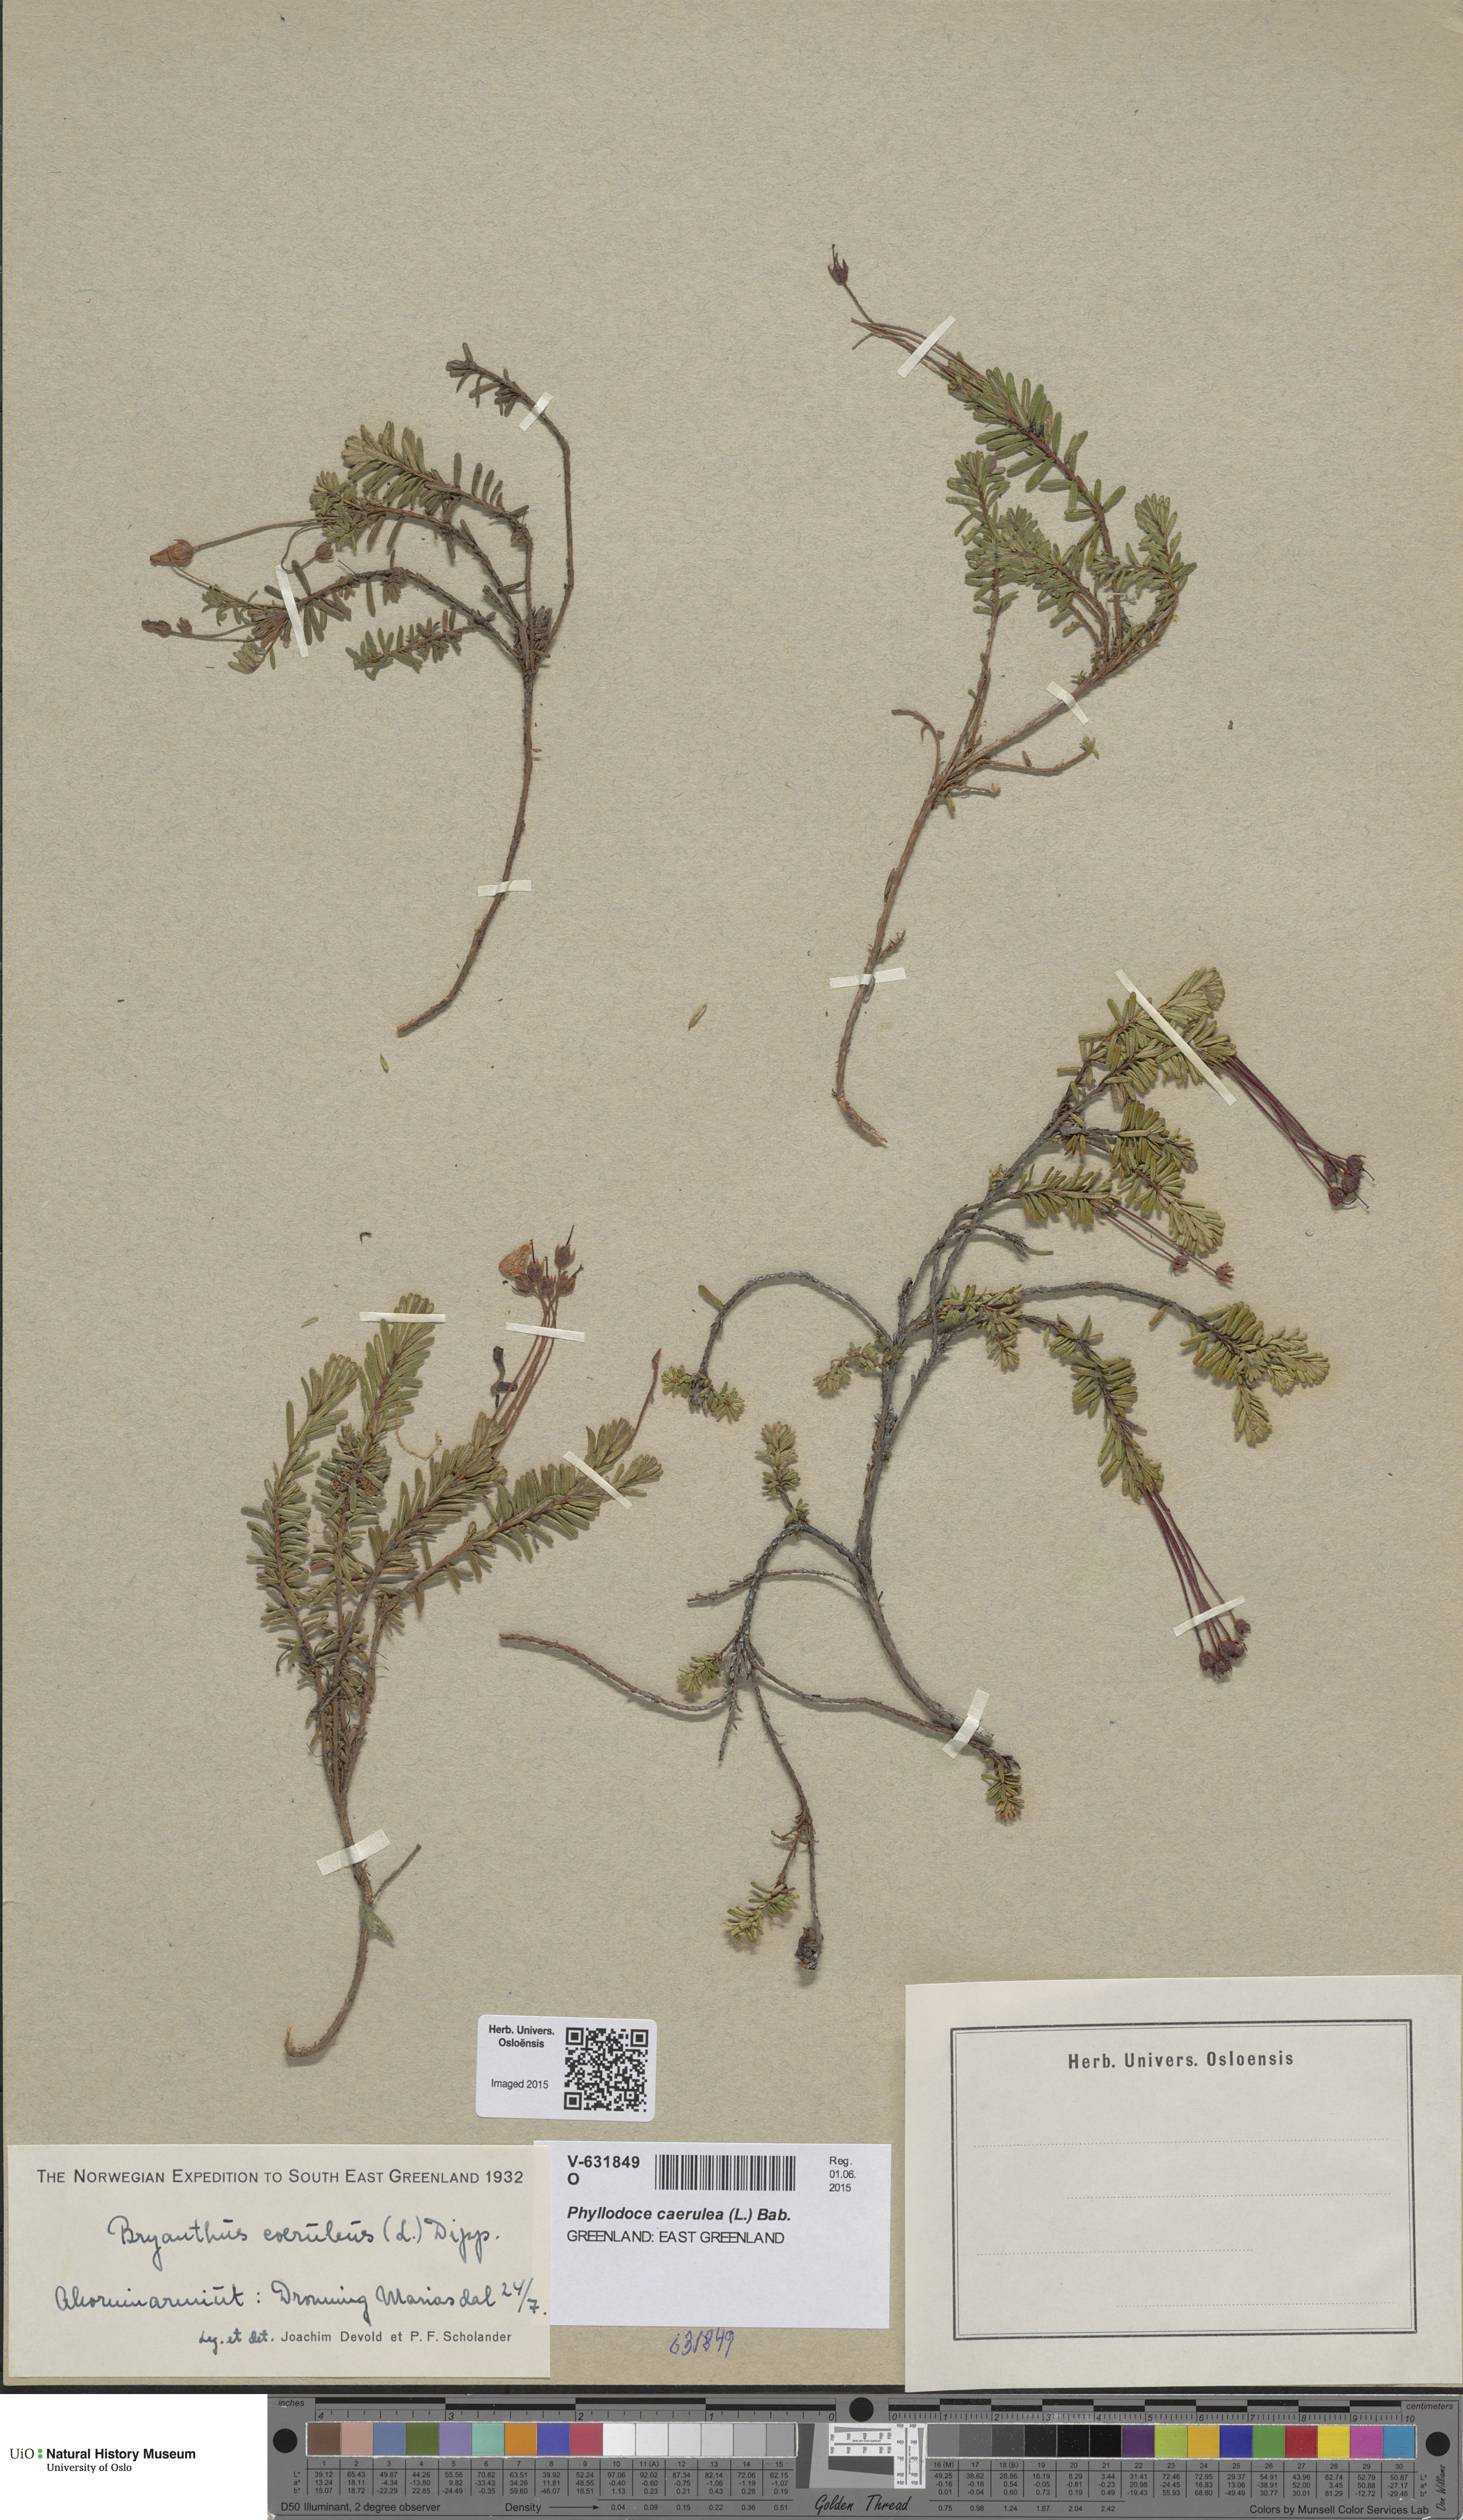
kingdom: Plantae
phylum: Tracheophyta
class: Magnoliopsida
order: Ericales
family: Ericaceae
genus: Phyllodoce
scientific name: Phyllodoce caerulea
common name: Blue heath
